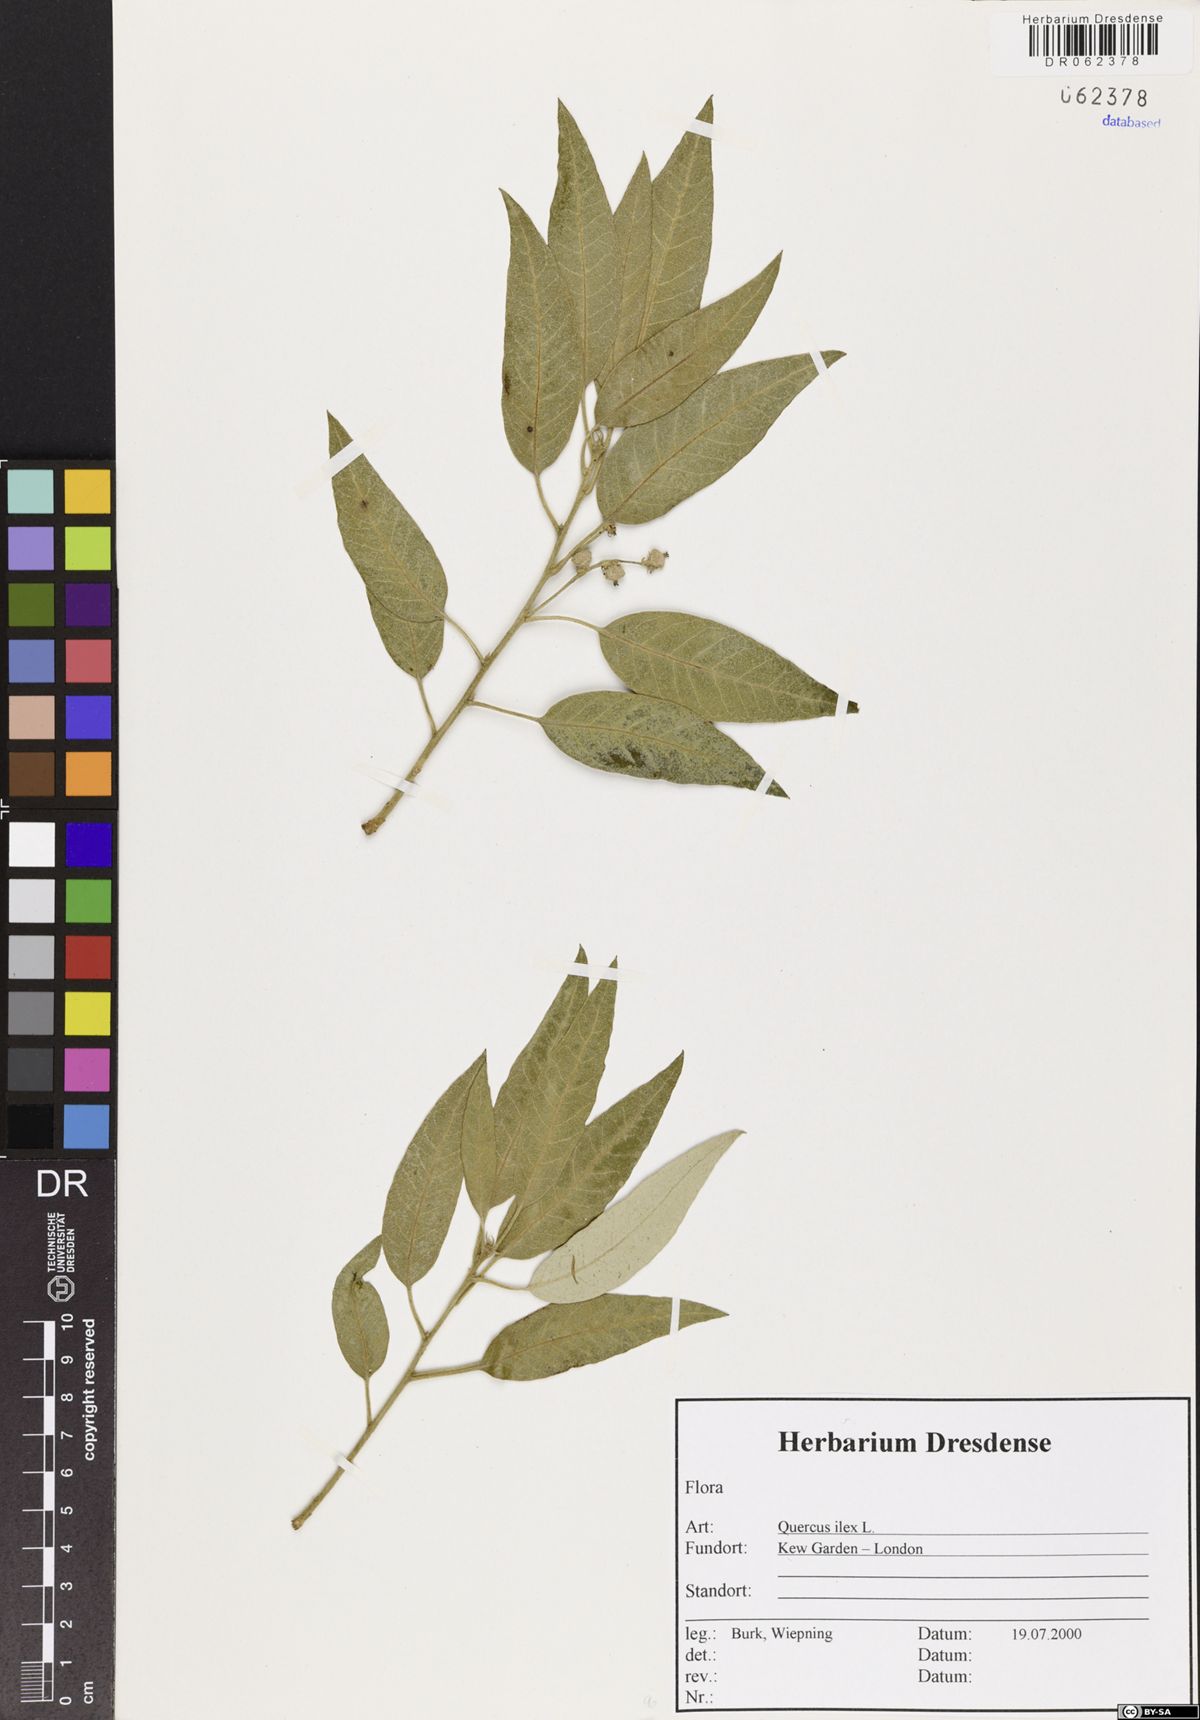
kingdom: Plantae
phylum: Tracheophyta
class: Magnoliopsida
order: Fagales
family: Fagaceae
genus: Quercus
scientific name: Quercus ilex
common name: Evergreen oak
